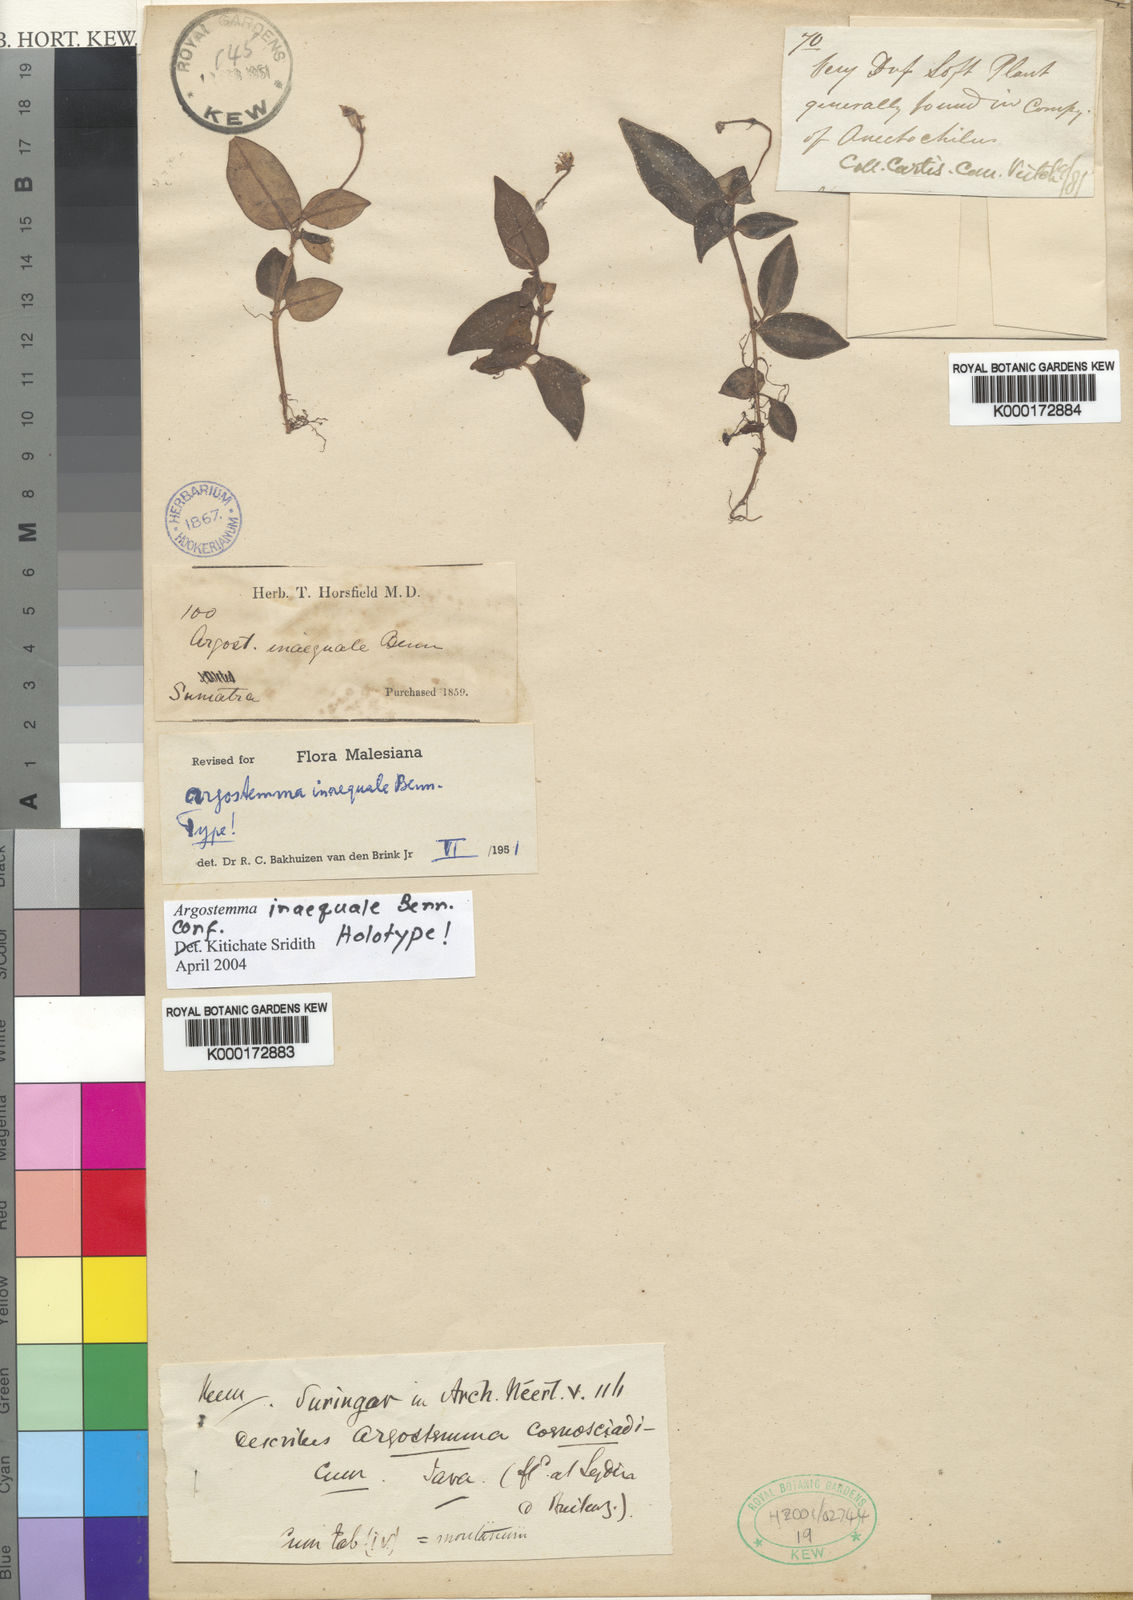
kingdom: Plantae
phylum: Tracheophyta
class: Magnoliopsida
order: Gentianales
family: Rubiaceae
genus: Argostemma
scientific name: Argostemma inaequale
